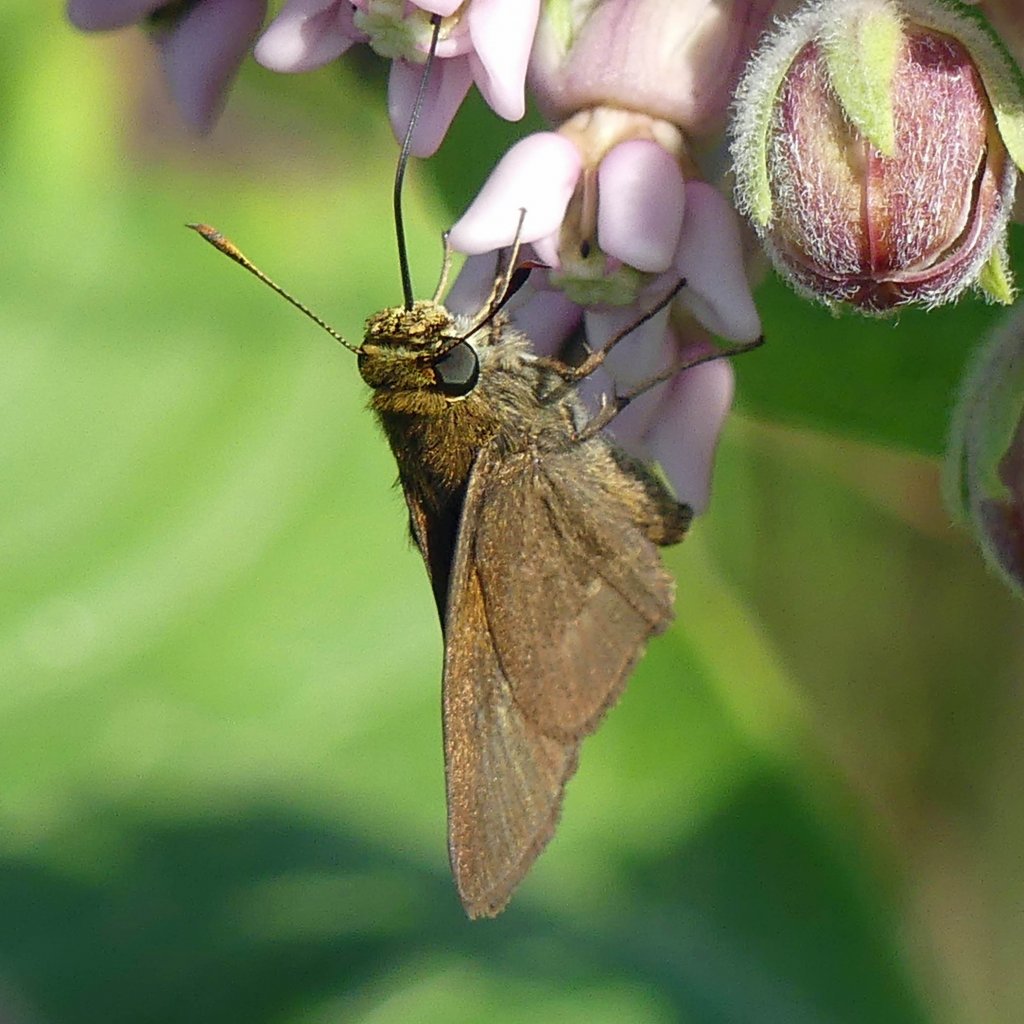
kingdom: Animalia
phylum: Arthropoda
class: Insecta
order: Lepidoptera
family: Hesperiidae
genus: Euphyes
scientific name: Euphyes vestris
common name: Dun Skipper
